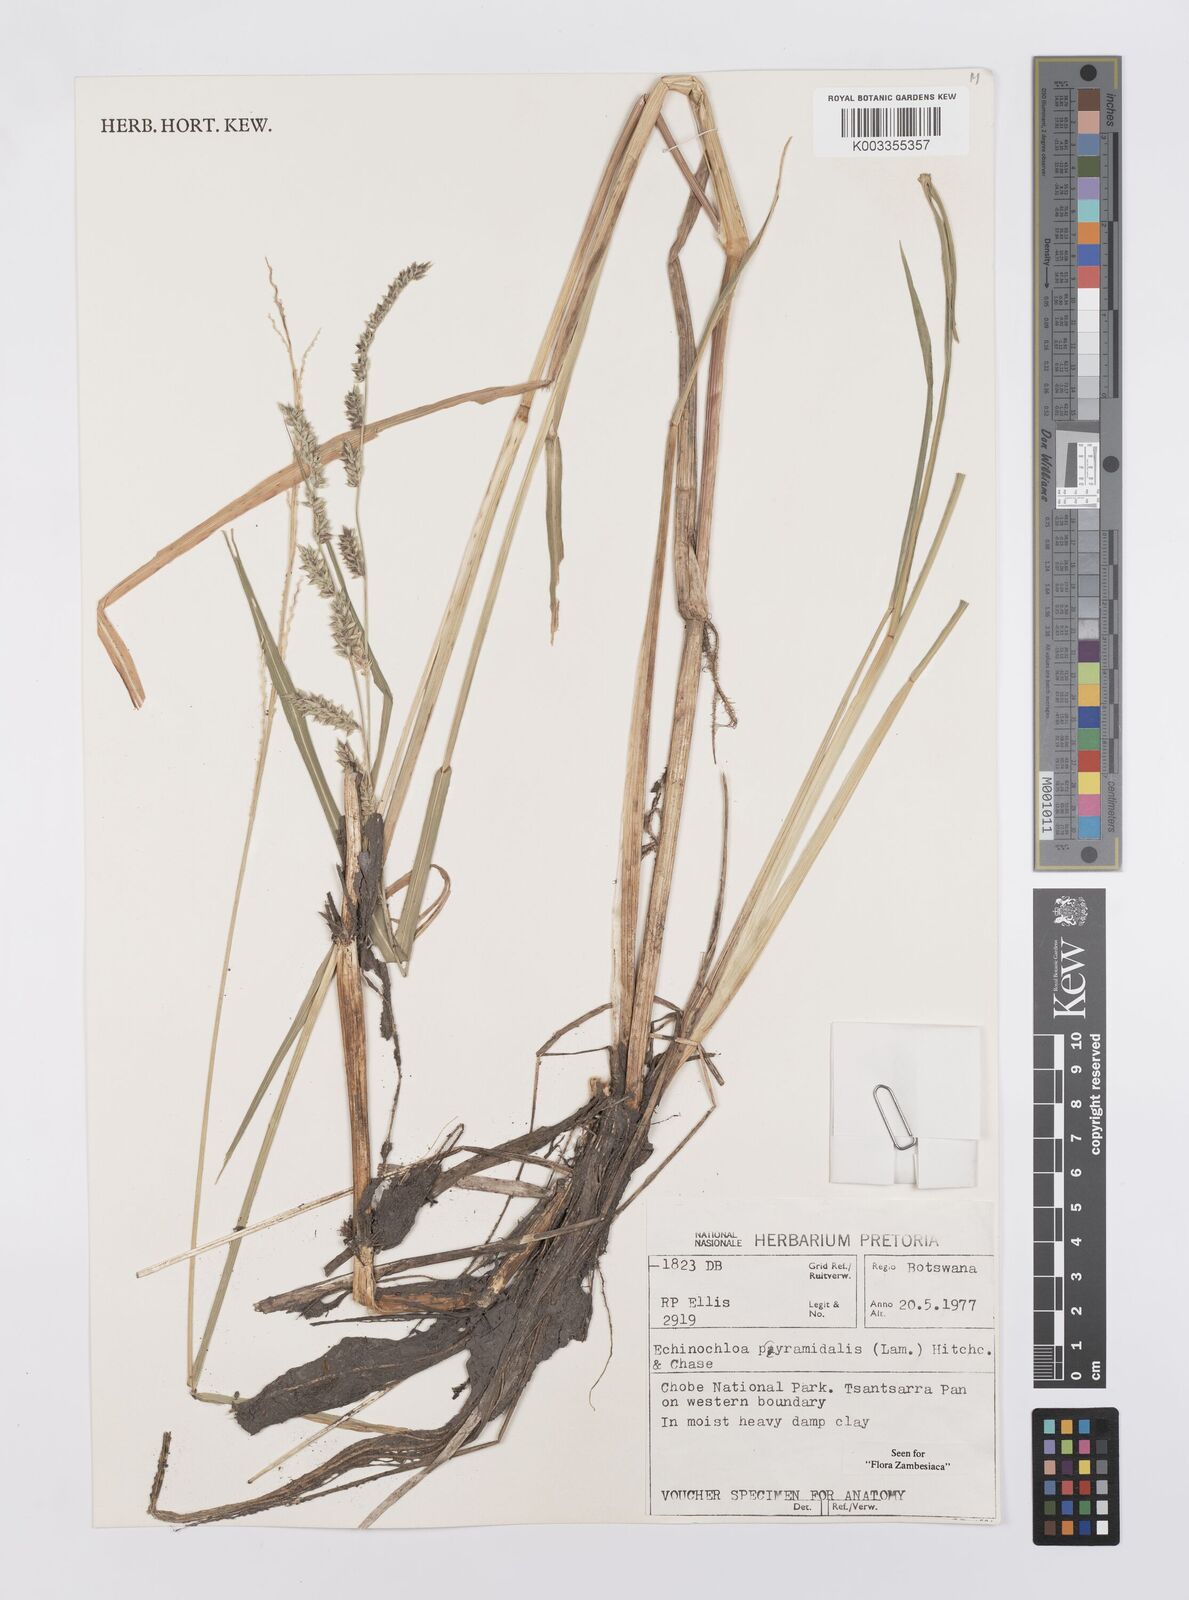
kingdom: Plantae
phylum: Tracheophyta
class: Liliopsida
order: Poales
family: Poaceae
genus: Echinochloa
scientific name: Echinochloa pyramidalis
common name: Antelope grass
